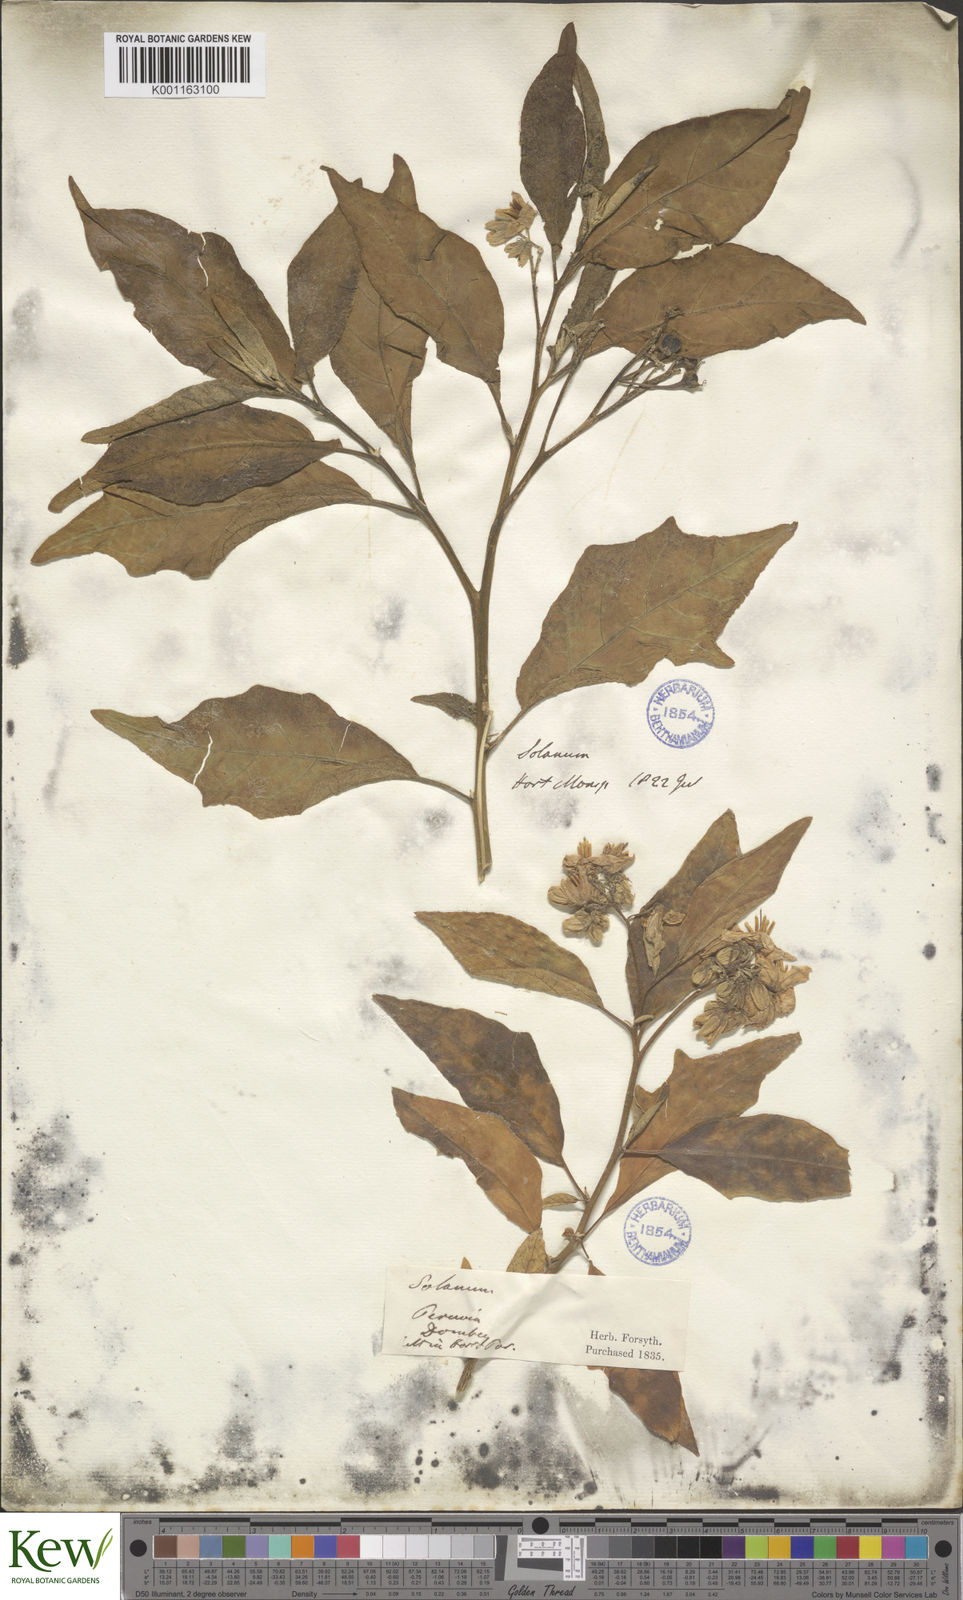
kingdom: Plantae
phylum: Tracheophyta
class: Magnoliopsida
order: Solanales
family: Solanaceae
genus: Solanum
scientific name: Solanum bonariense
